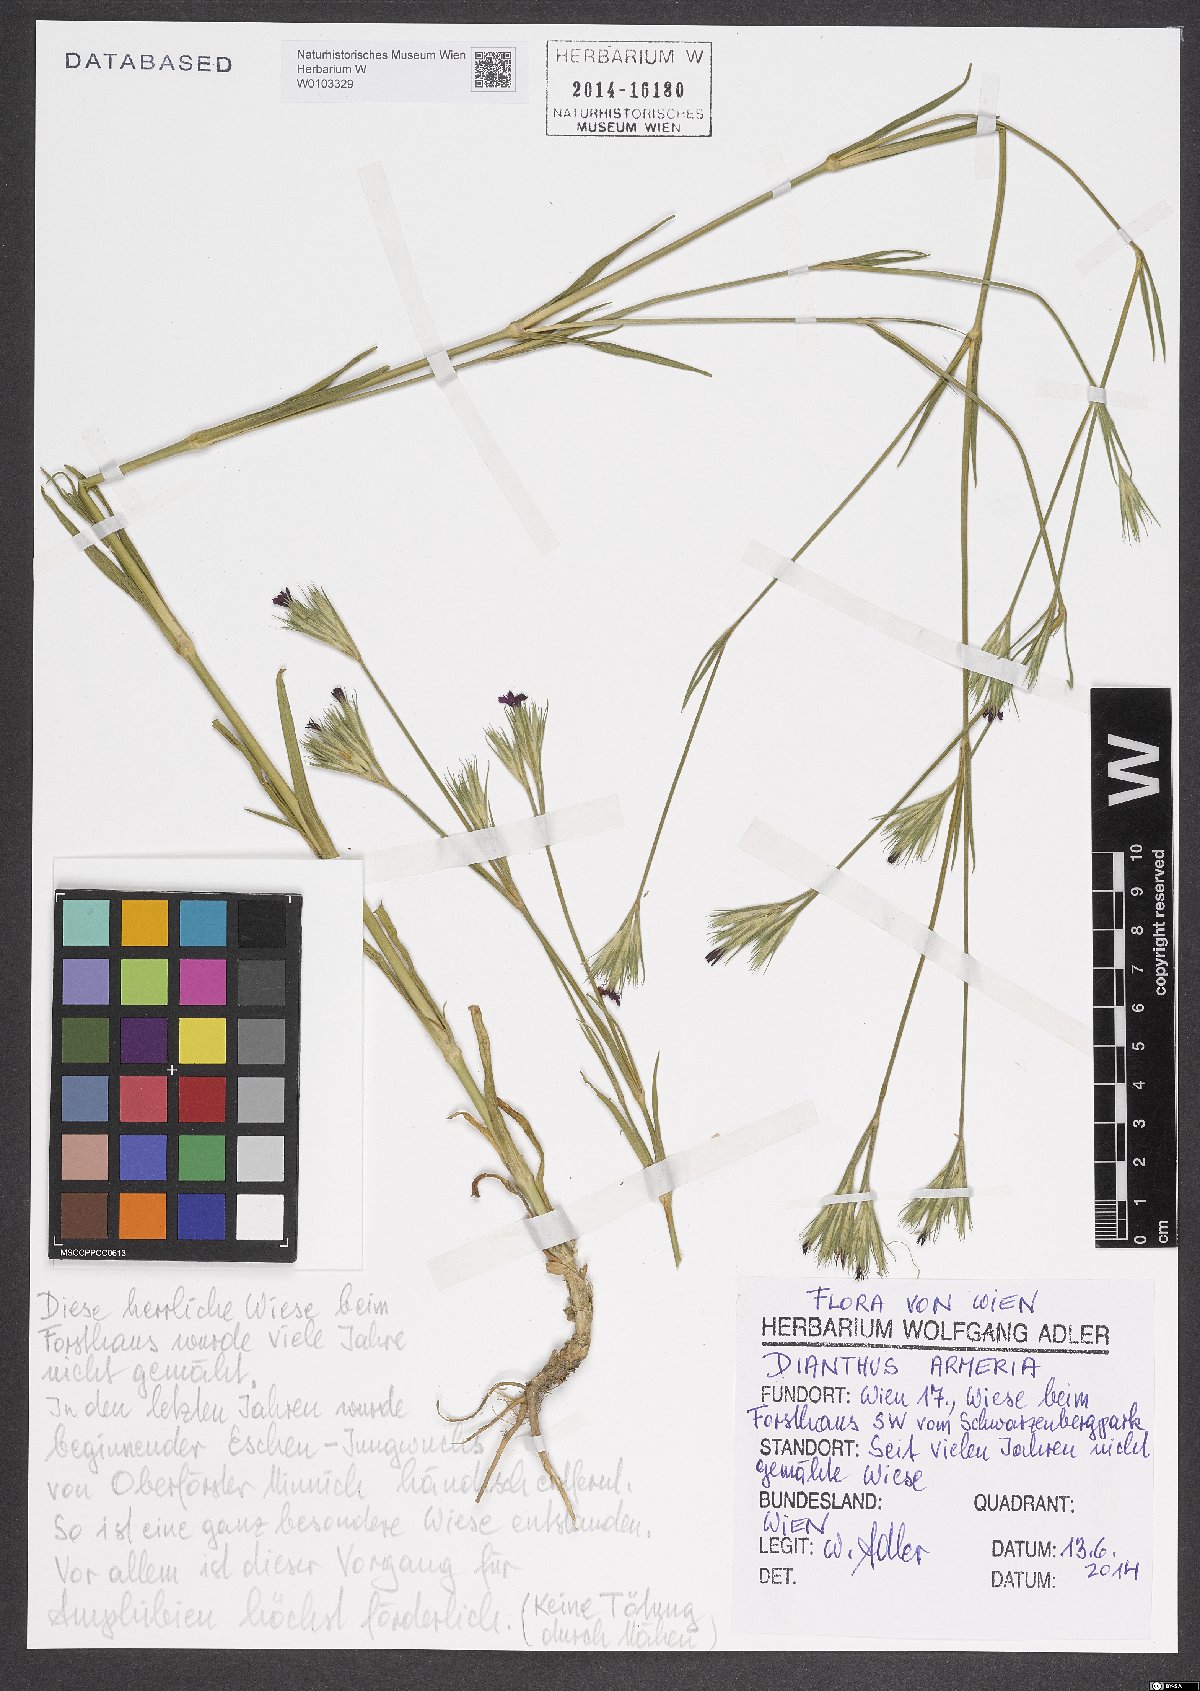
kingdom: Plantae
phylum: Tracheophyta
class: Magnoliopsida
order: Caryophyllales
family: Caryophyllaceae
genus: Dianthus
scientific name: Dianthus armeria
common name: Deptford pink
